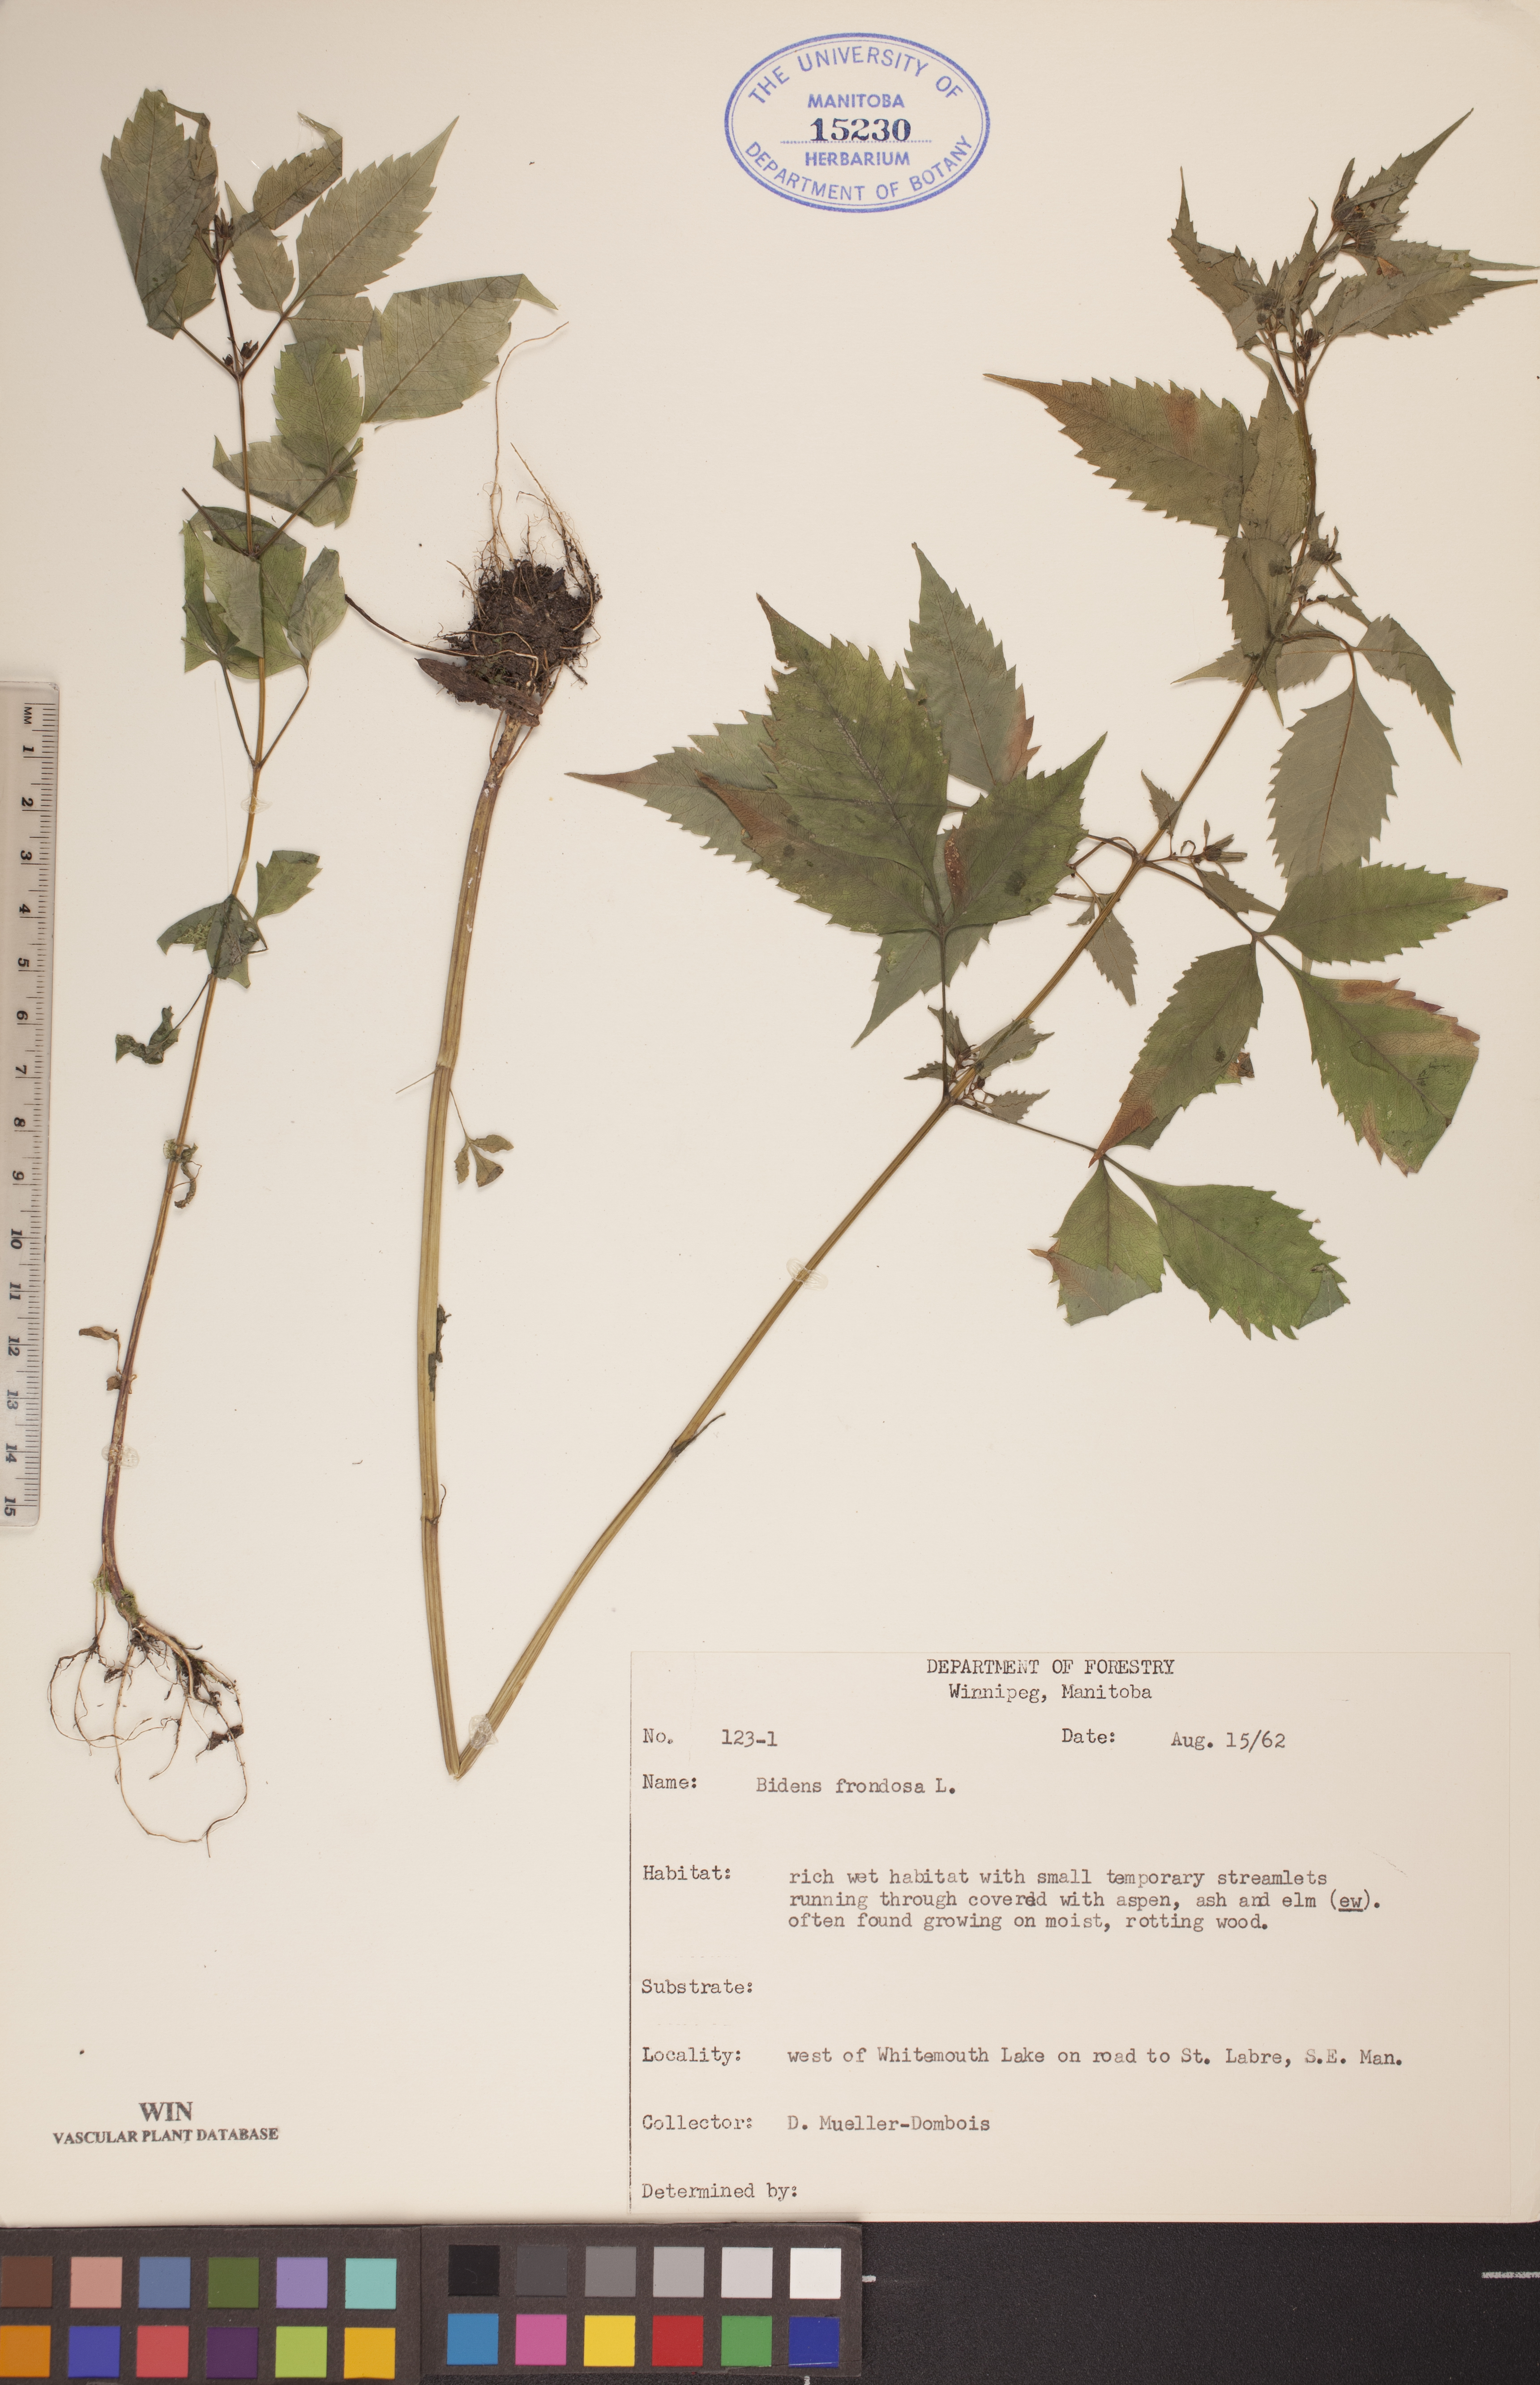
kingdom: Plantae
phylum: Tracheophyta
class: Magnoliopsida
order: Asterales
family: Asteraceae
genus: Bidens
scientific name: Bidens frondosa
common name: Beggarticks
